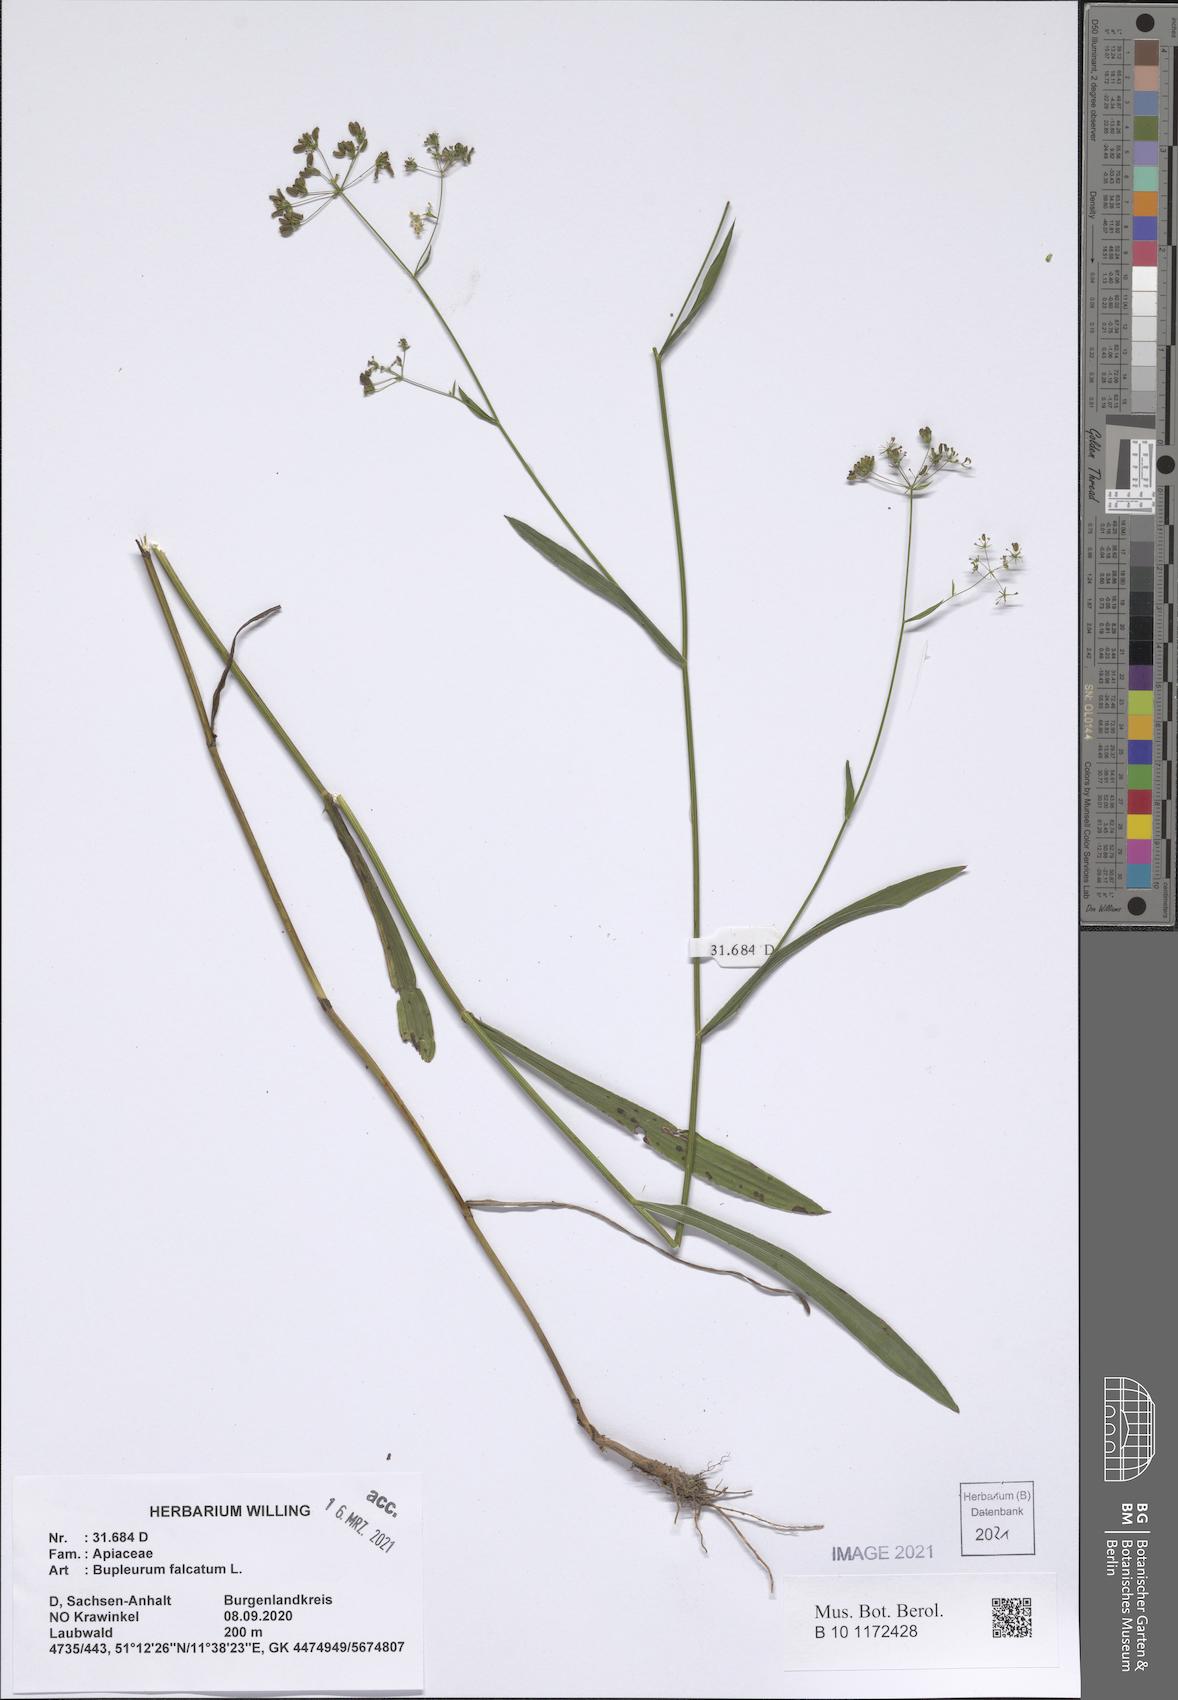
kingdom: Plantae
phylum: Tracheophyta
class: Magnoliopsida
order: Apiales
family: Apiaceae
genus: Bupleurum
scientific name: Bupleurum falcatum
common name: Sickle-leaved hare's-ear
